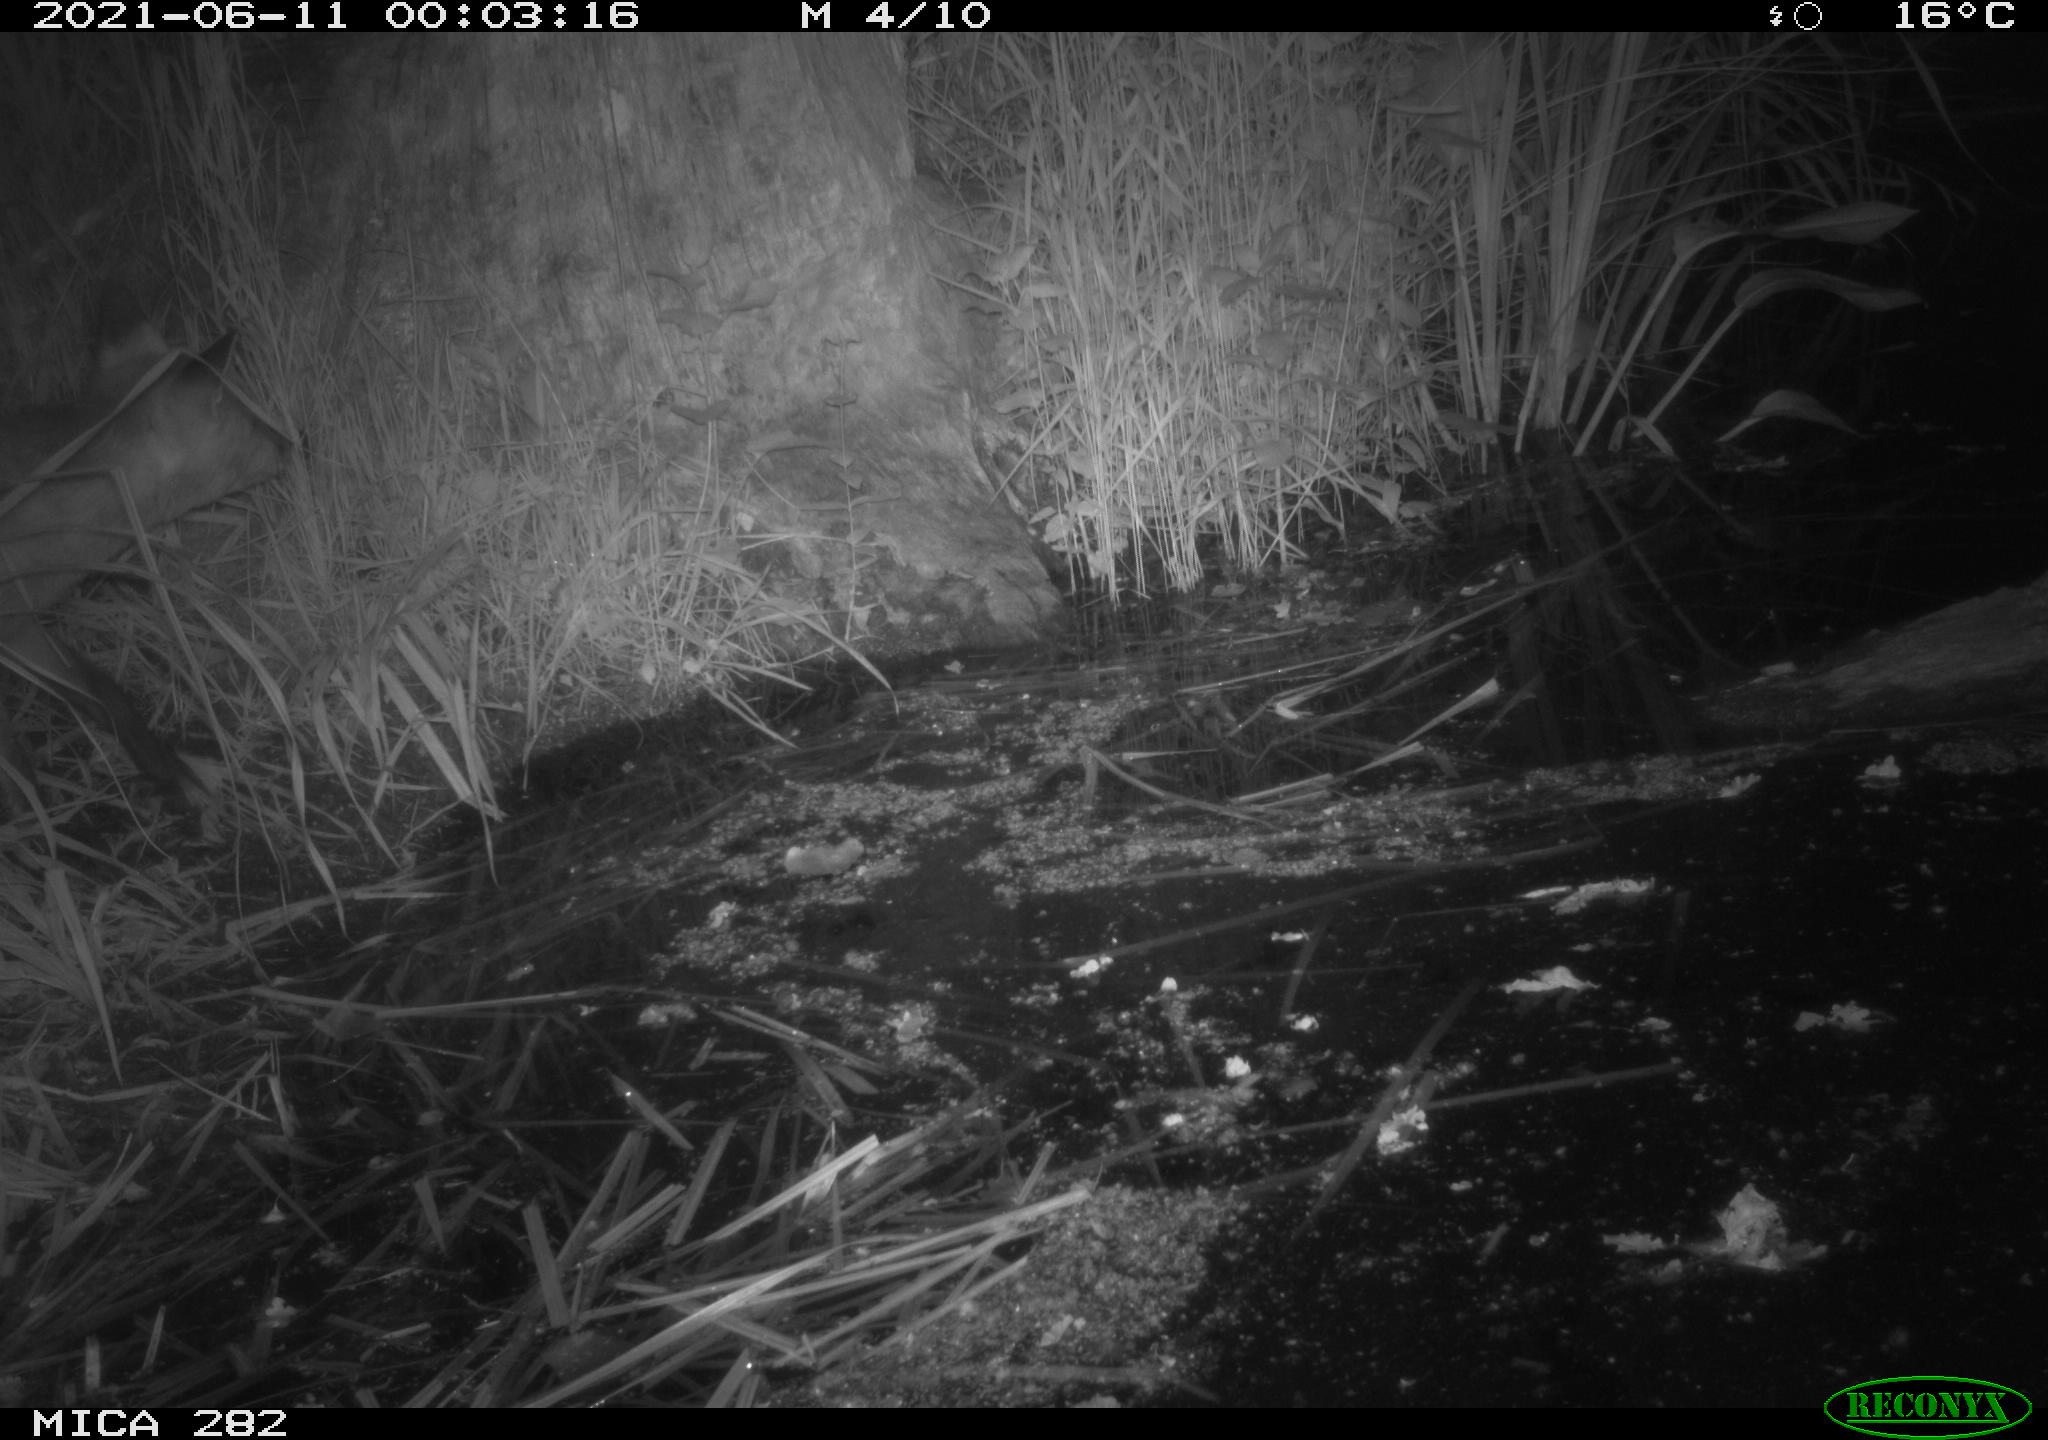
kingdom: Animalia
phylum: Chordata
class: Mammalia
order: Carnivora
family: Canidae
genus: Vulpes
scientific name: Vulpes vulpes
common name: Red fox
